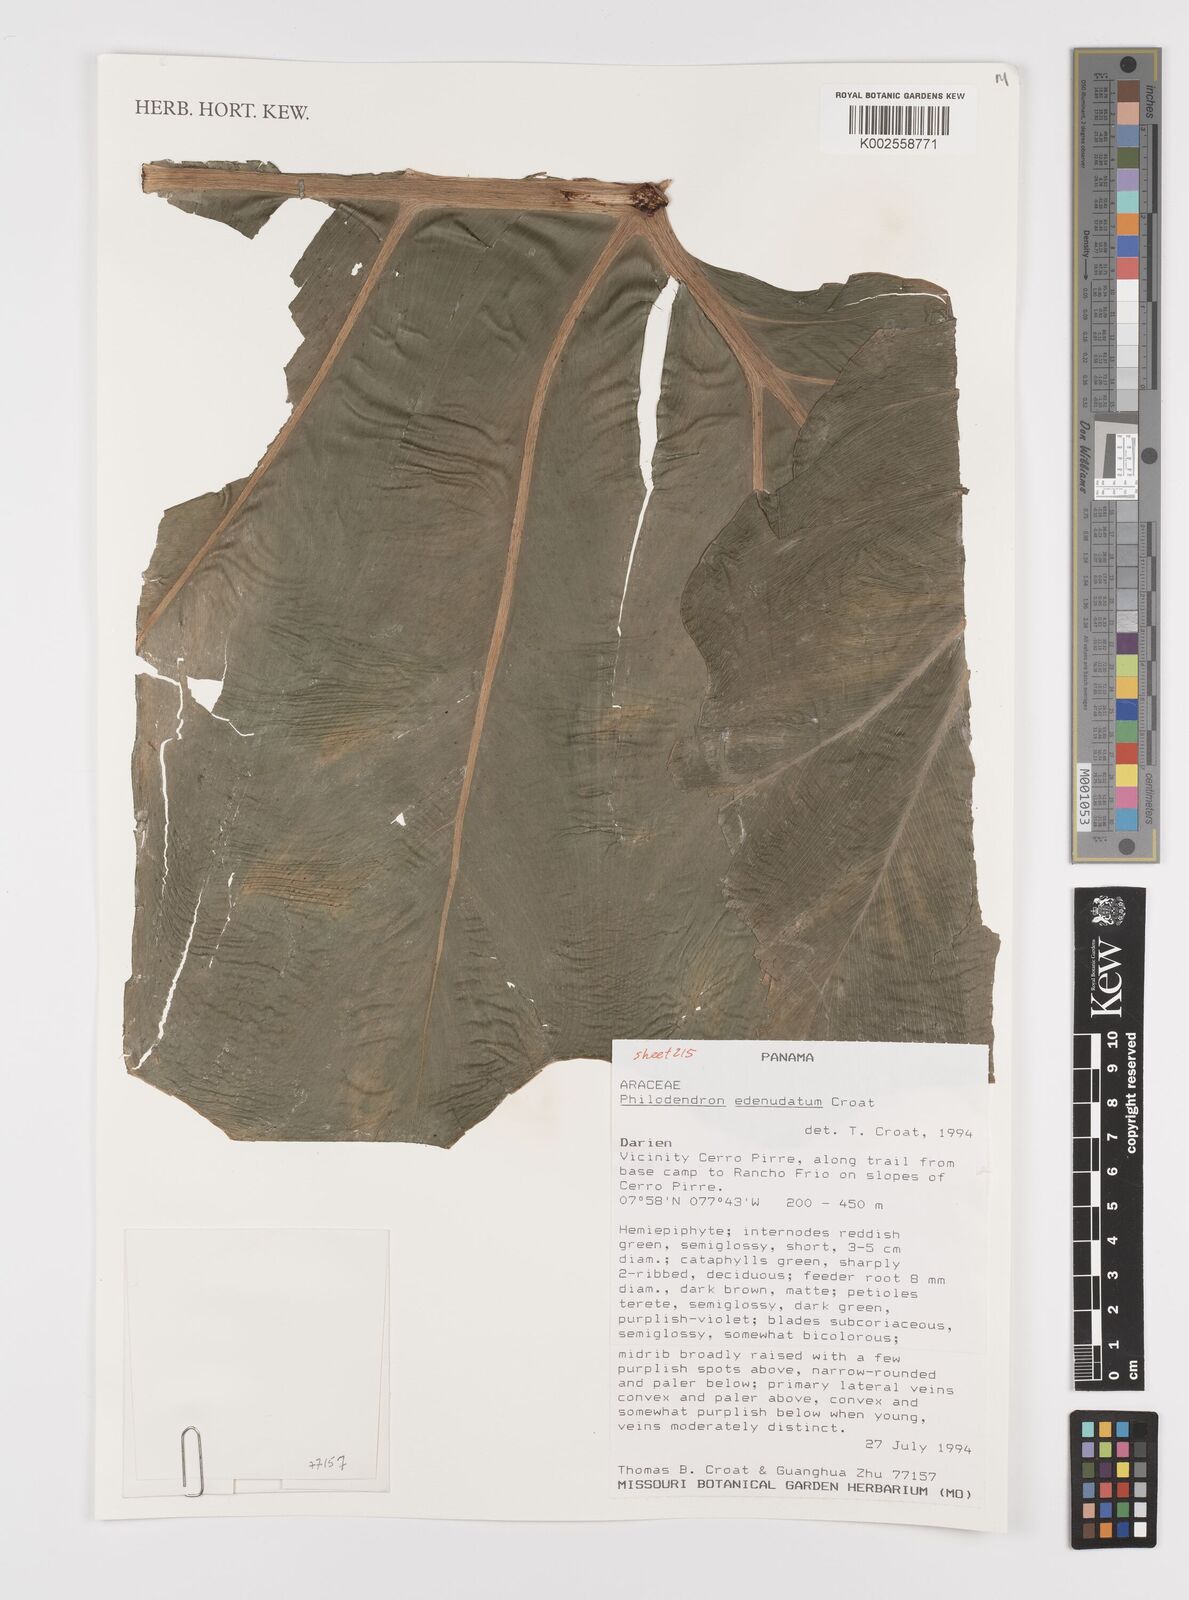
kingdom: Plantae
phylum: Tracheophyta
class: Liliopsida
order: Alismatales
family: Araceae
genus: Philodendron
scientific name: Philodendron edenudatum
